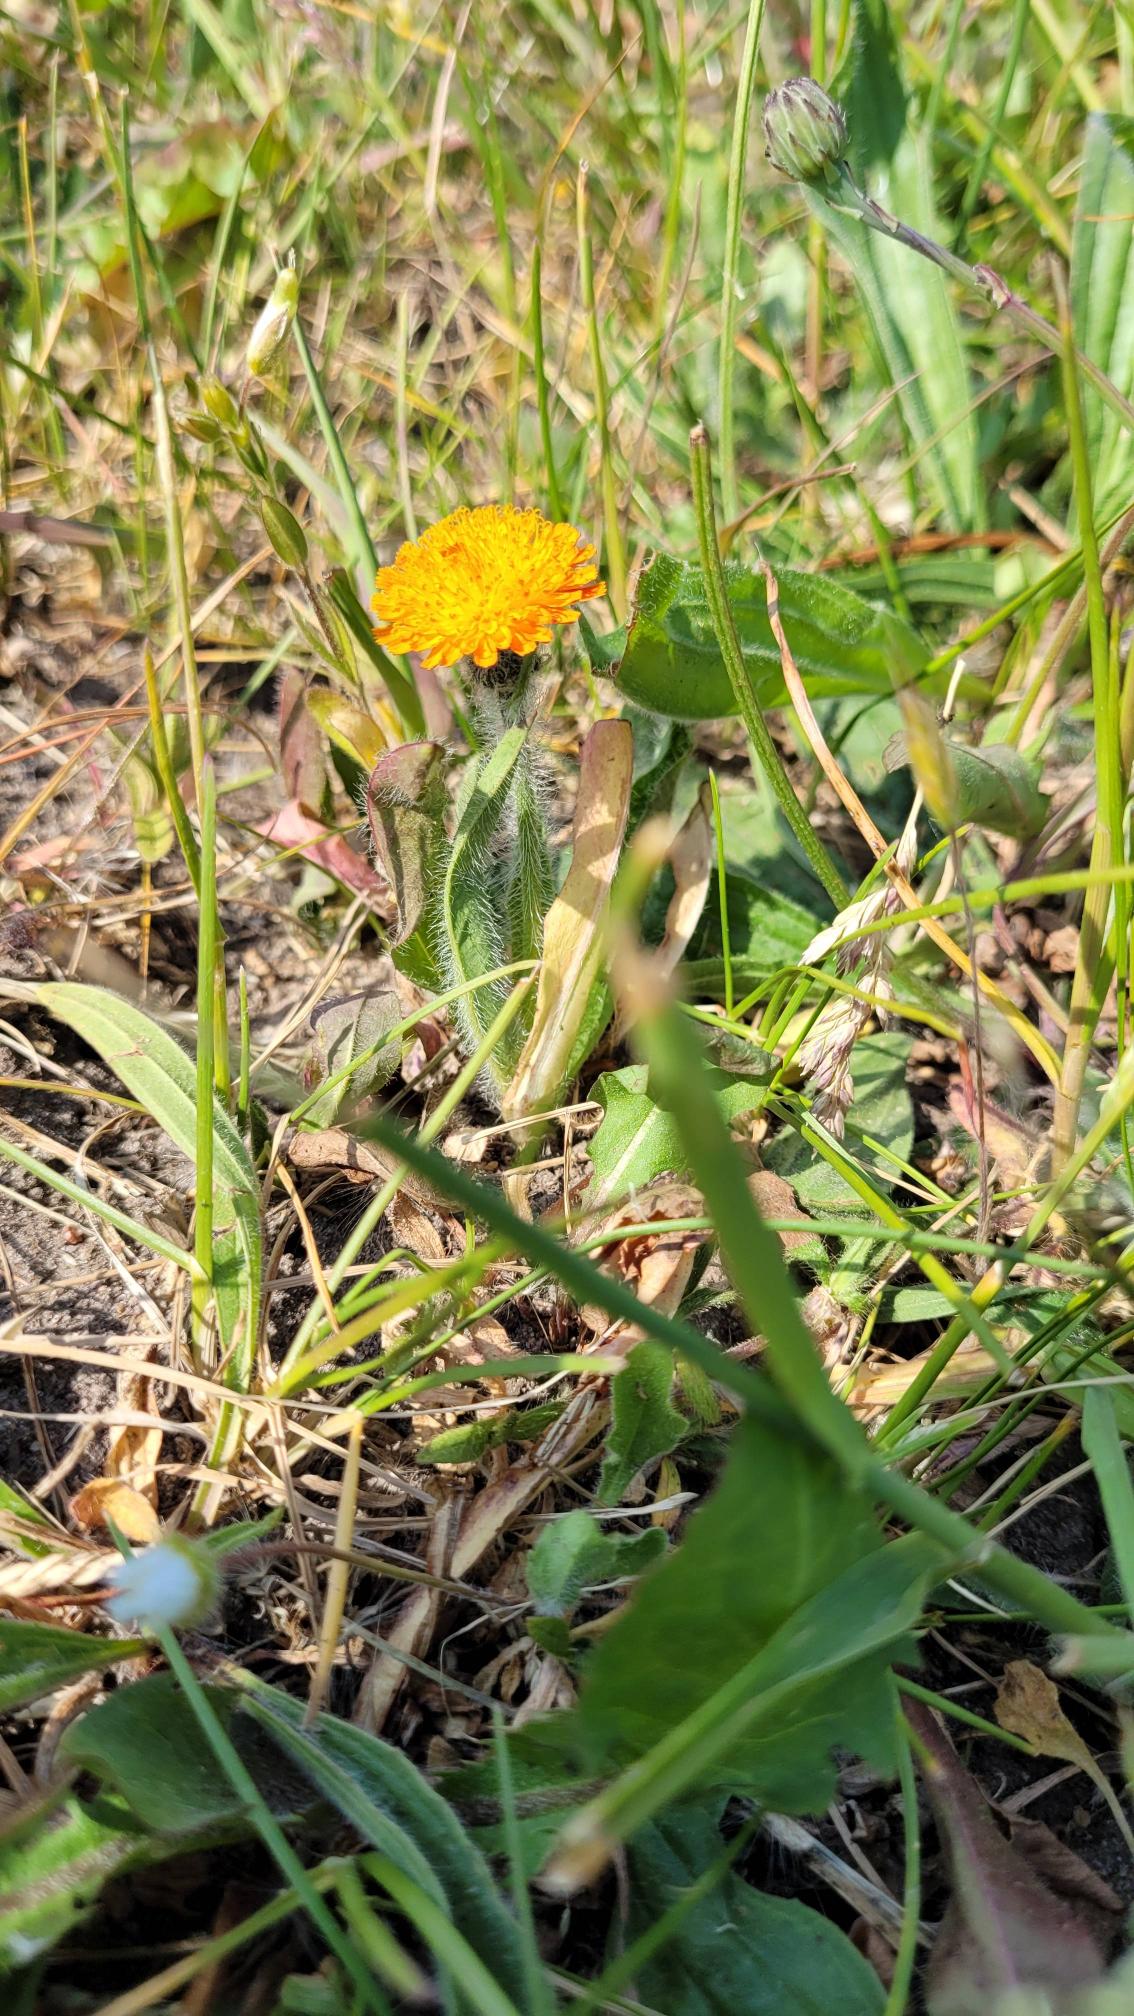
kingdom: Plantae
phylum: Tracheophyta
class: Magnoliopsida
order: Asterales
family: Asteraceae
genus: Pilosella
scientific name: Pilosella aurantiaca
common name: Pomerans-høgeurt
